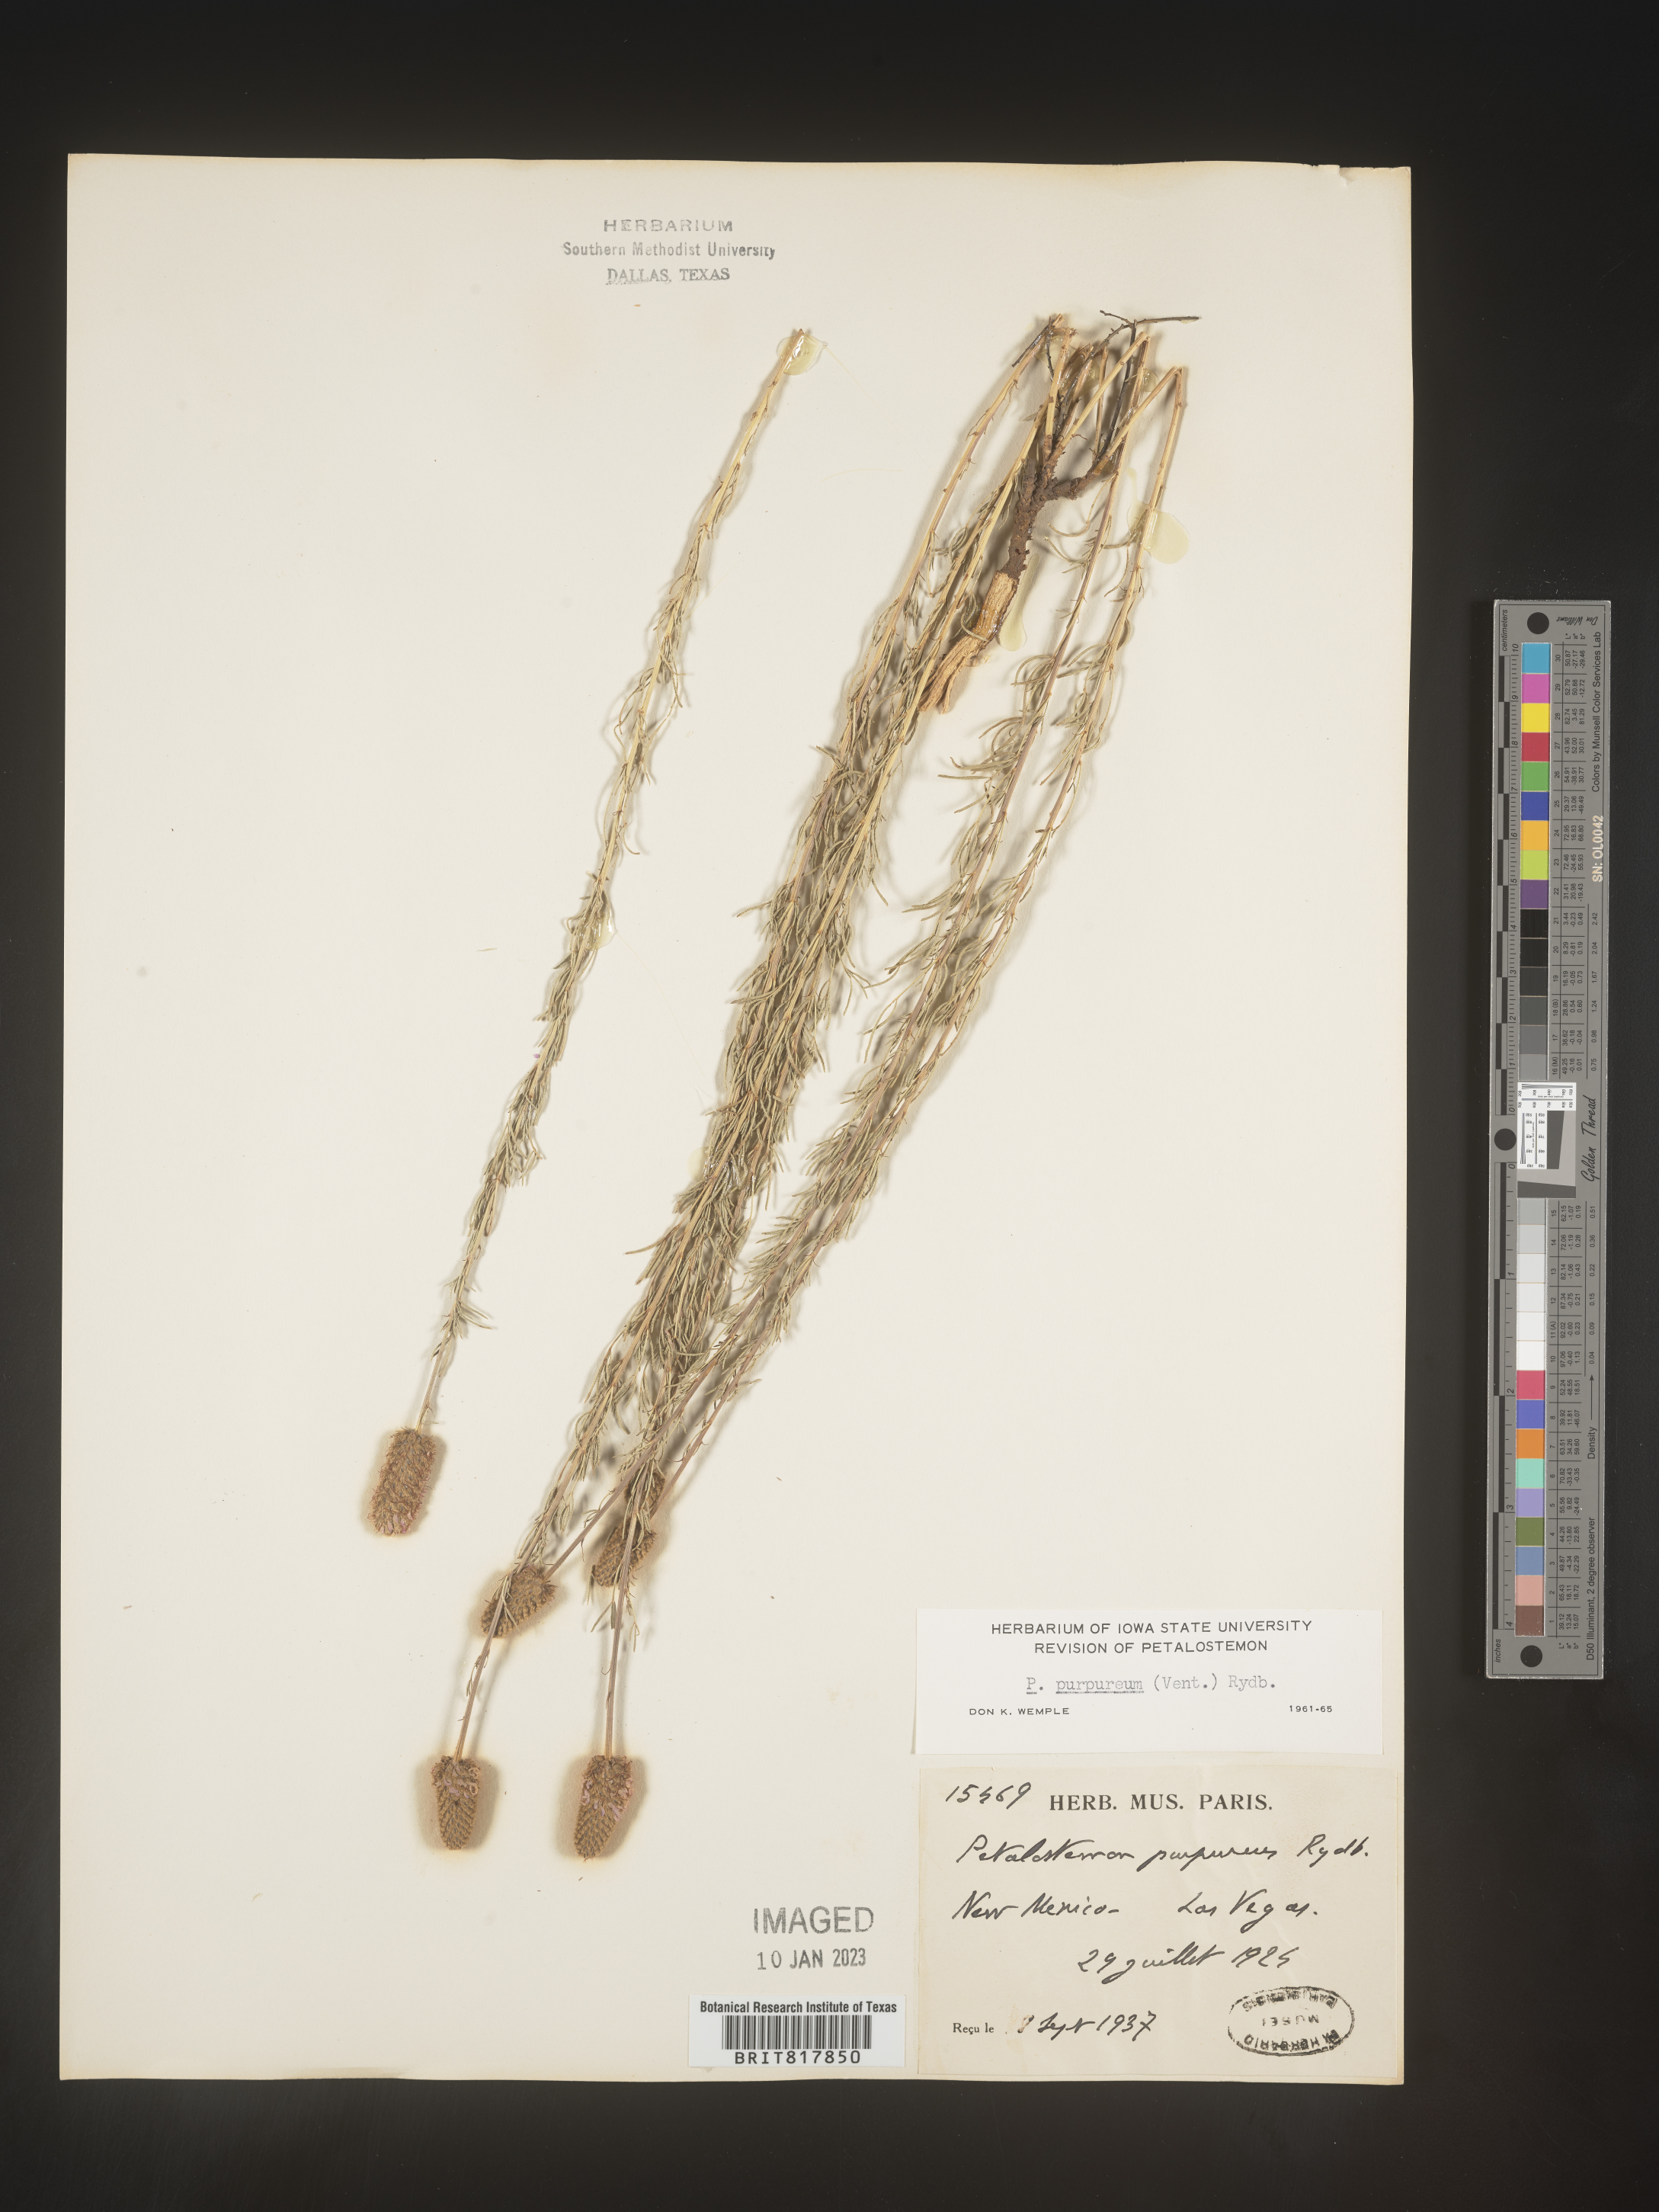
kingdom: Plantae
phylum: Tracheophyta
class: Magnoliopsida
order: Fabales
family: Fabaceae
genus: Dalea
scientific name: Dalea purpurea
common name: Purple prairie-clover
